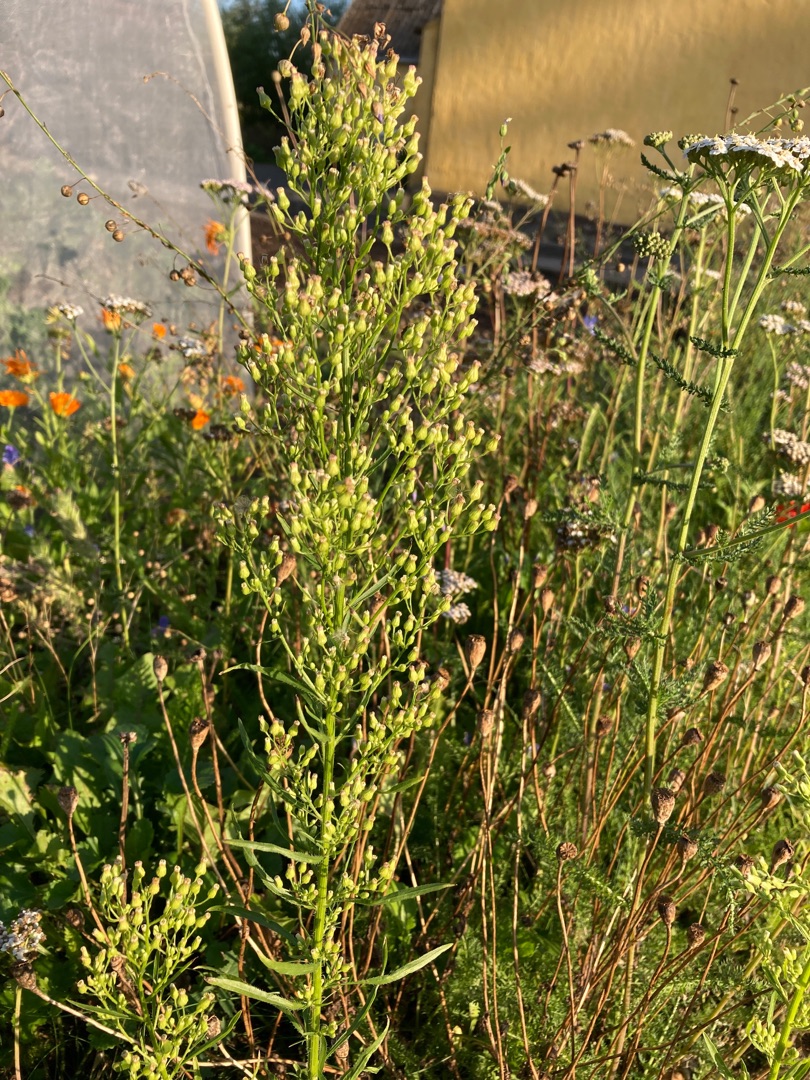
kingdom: Plantae
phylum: Tracheophyta
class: Magnoliopsida
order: Asterales
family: Asteraceae
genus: Erigeron
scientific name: Erigeron canadensis
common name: Kanadisk bakkestjerne
